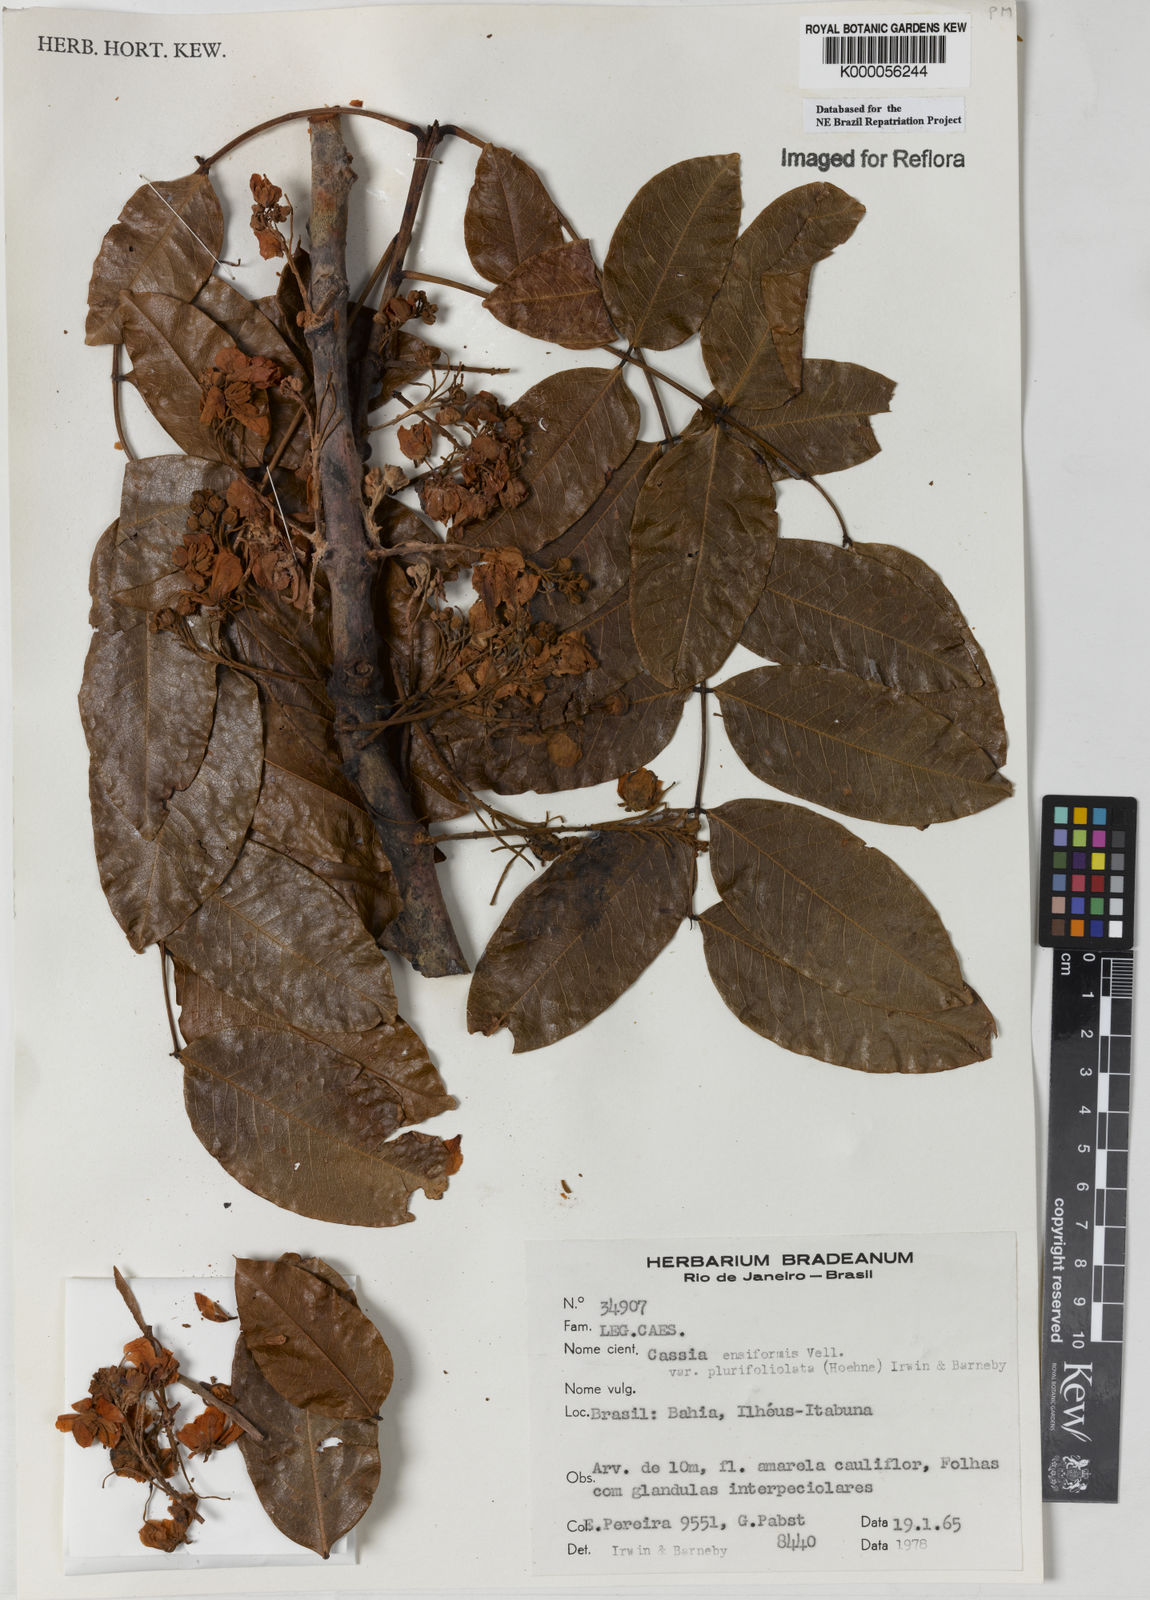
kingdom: Plantae
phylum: Tracheophyta
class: Magnoliopsida
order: Fabales
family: Fabaceae
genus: Chamaecrista
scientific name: Chamaecrista ensiformis
